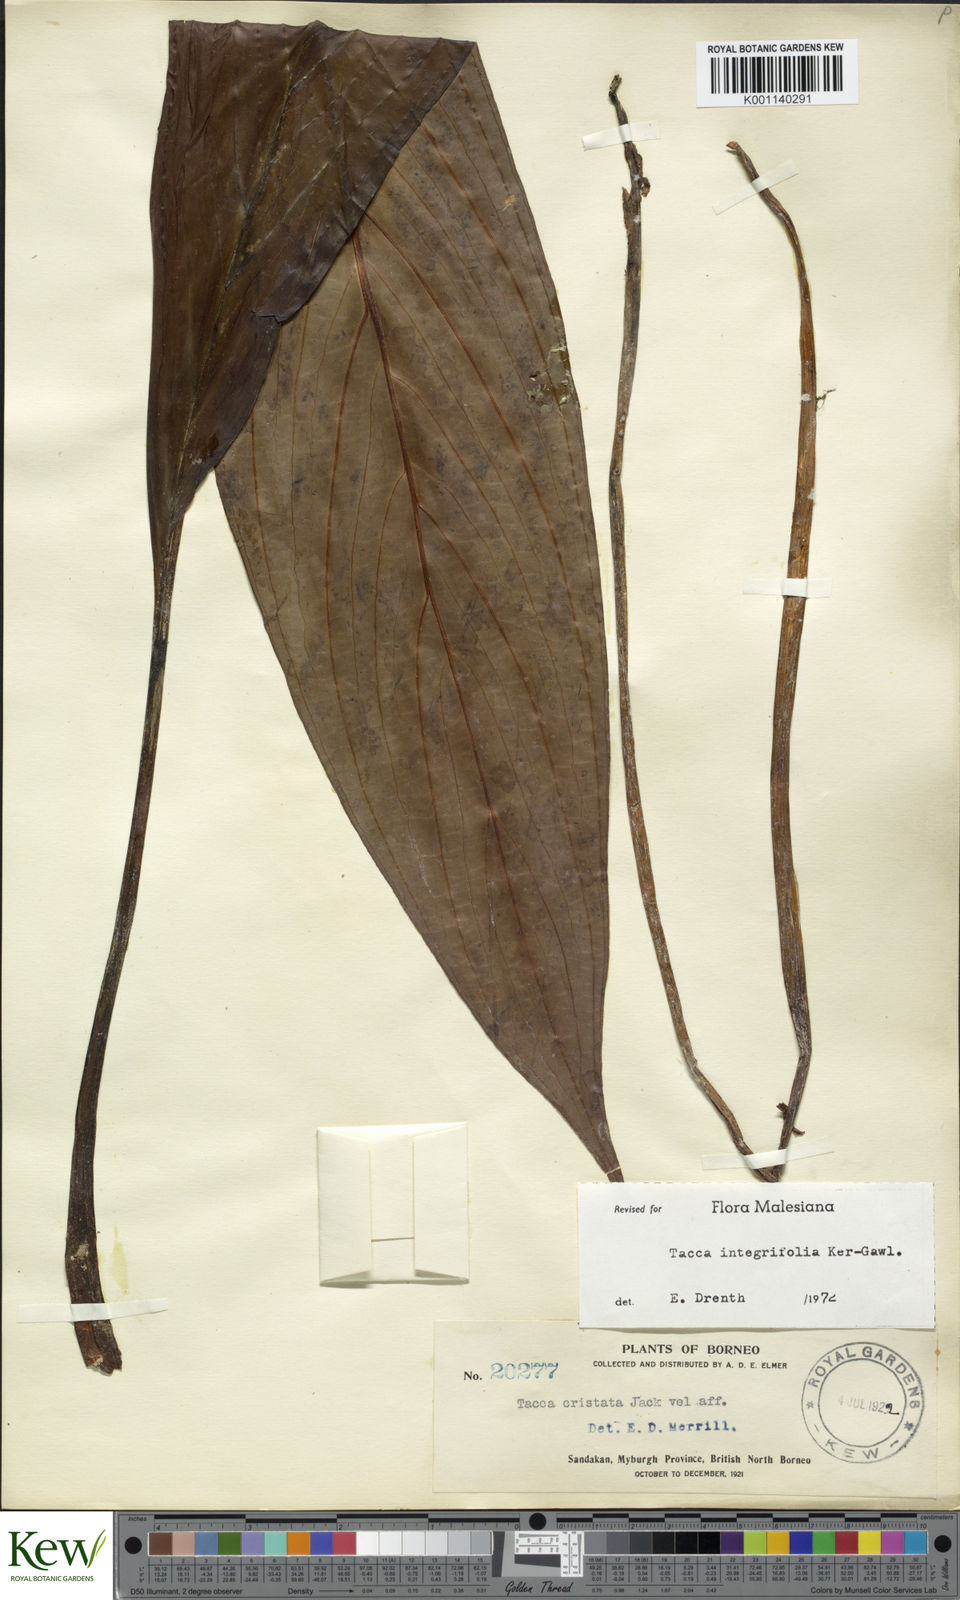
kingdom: Plantae
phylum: Tracheophyta
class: Liliopsida
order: Dioscoreales
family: Dioscoreaceae
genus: Tacca
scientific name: Tacca integrifolia
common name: Batplant
